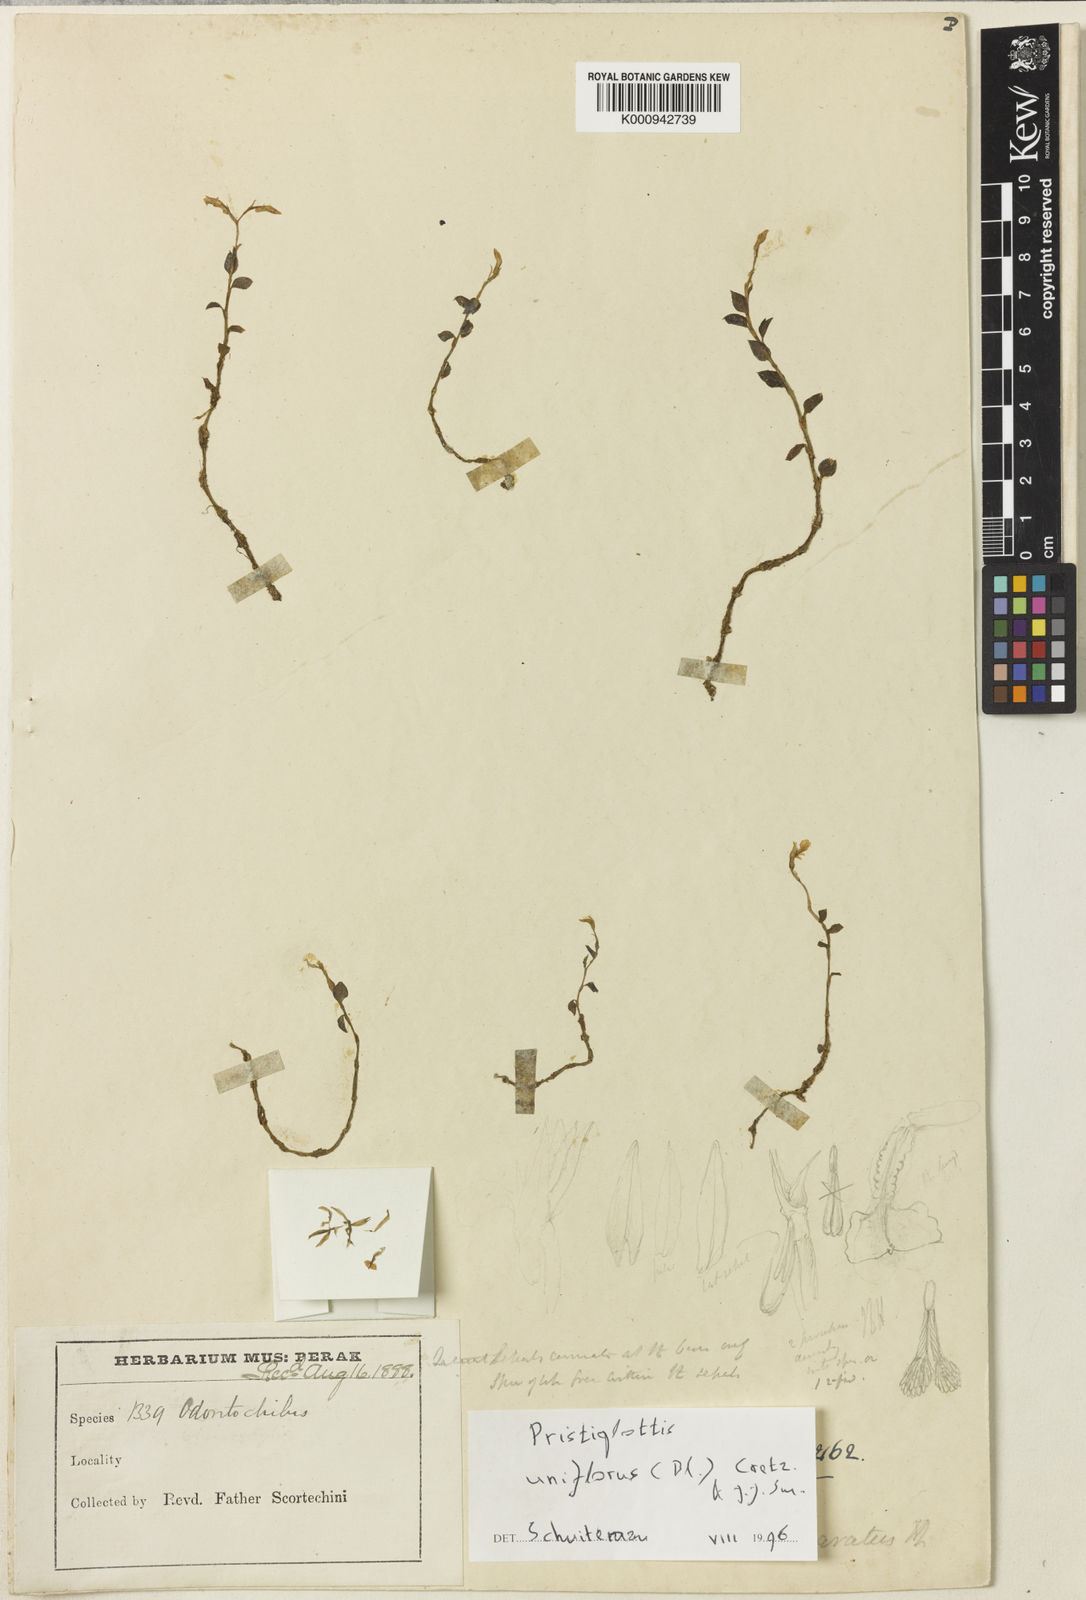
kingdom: Plantae
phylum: Tracheophyta
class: Liliopsida
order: Asparagales
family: Orchidaceae
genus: Odontochilus
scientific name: Odontochilus uniflorus
